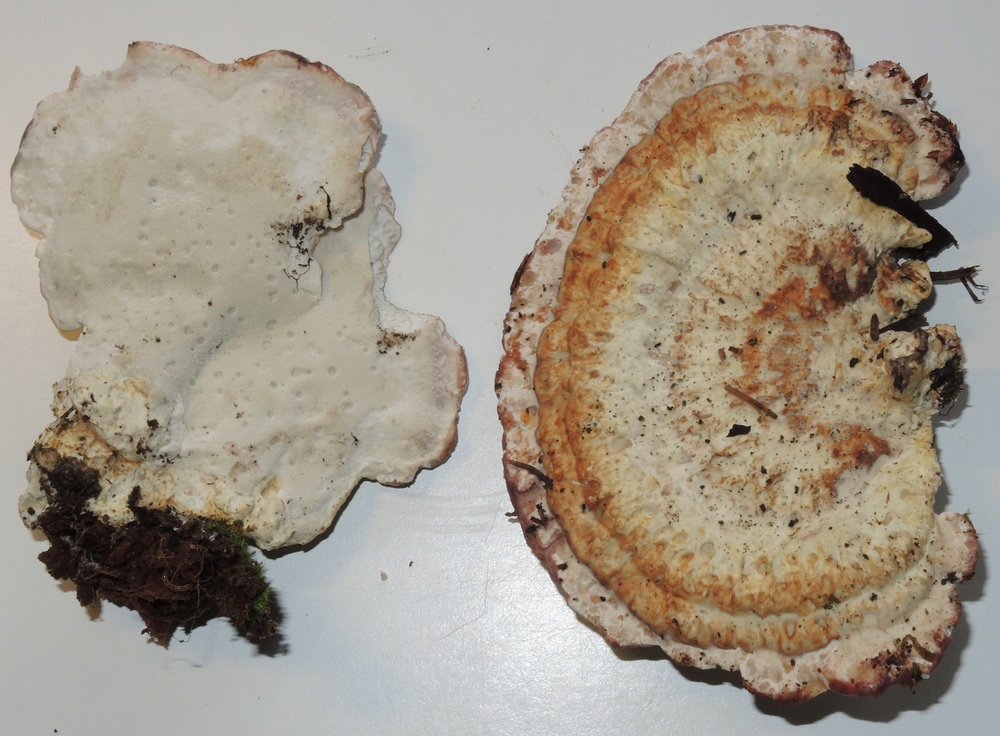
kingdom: Fungi
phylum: Basidiomycota
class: Agaricomycetes
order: Polyporales
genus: Calcipostia
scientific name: Calcipostia guttulata
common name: dråbe-kødporesvamp
